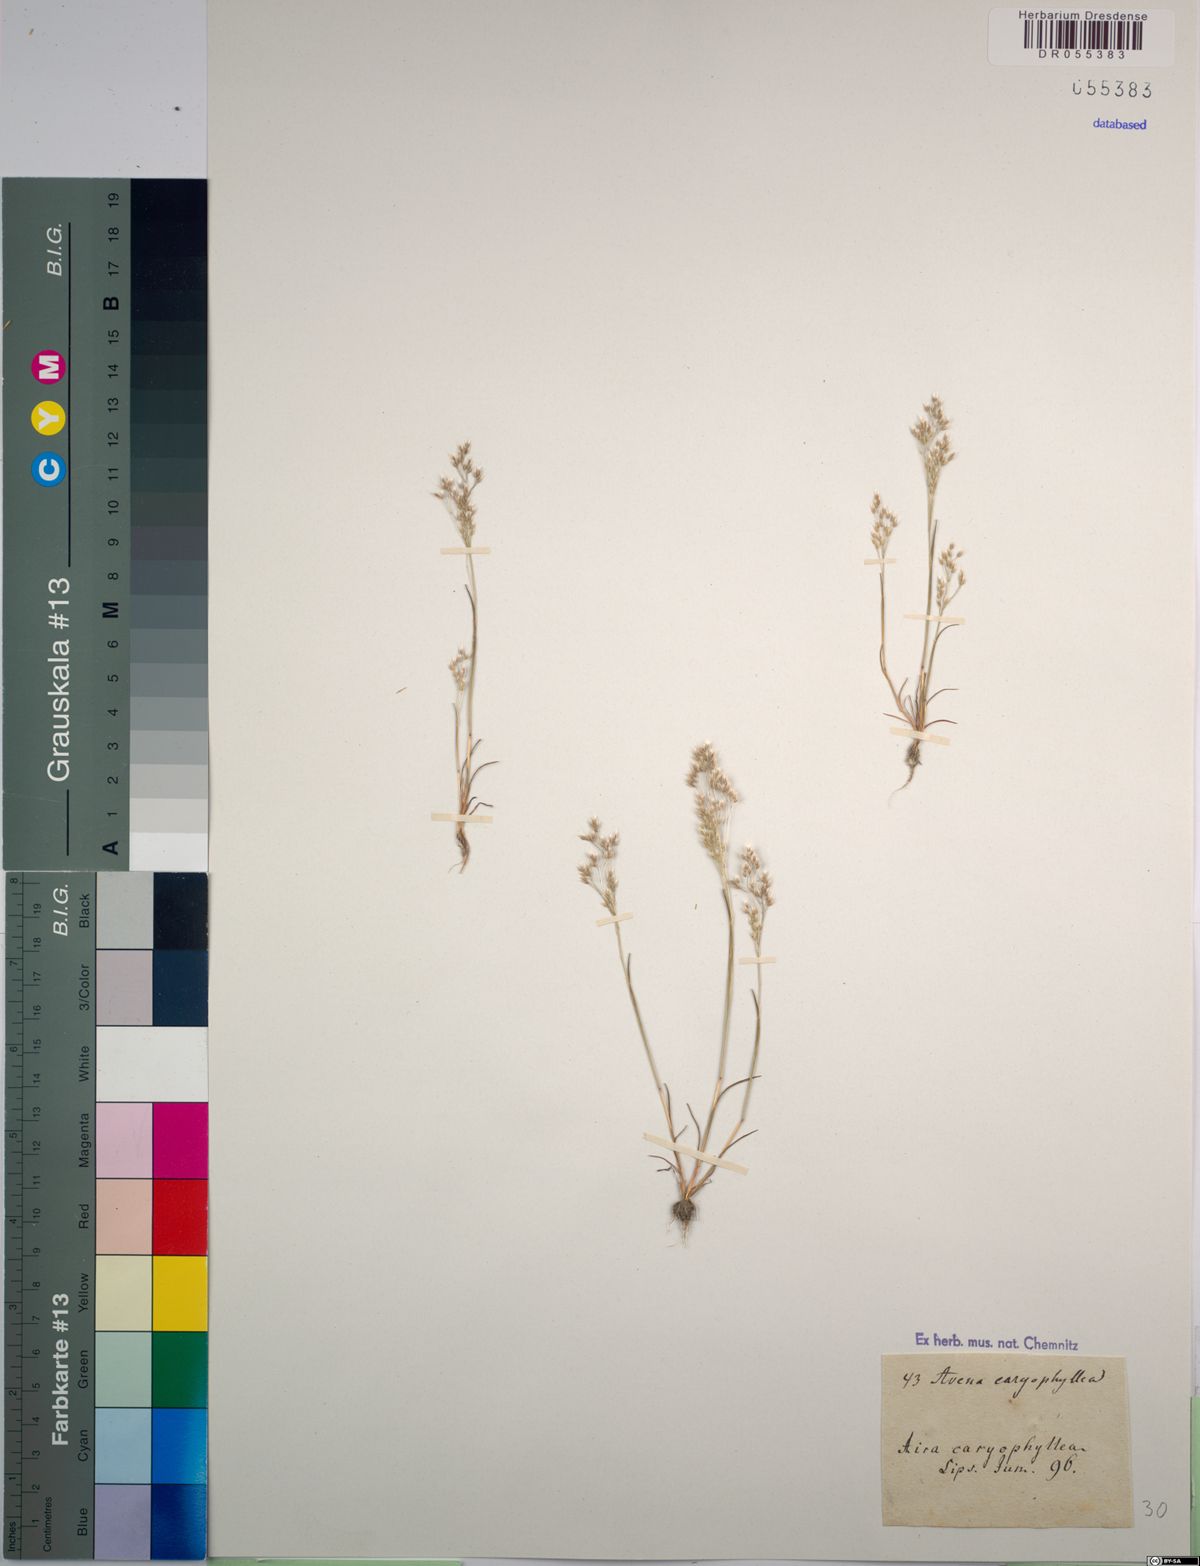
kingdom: Plantae
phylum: Tracheophyta
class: Liliopsida
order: Poales
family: Poaceae
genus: Aira
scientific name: Aira caryophyllea
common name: Silver hairgrass
